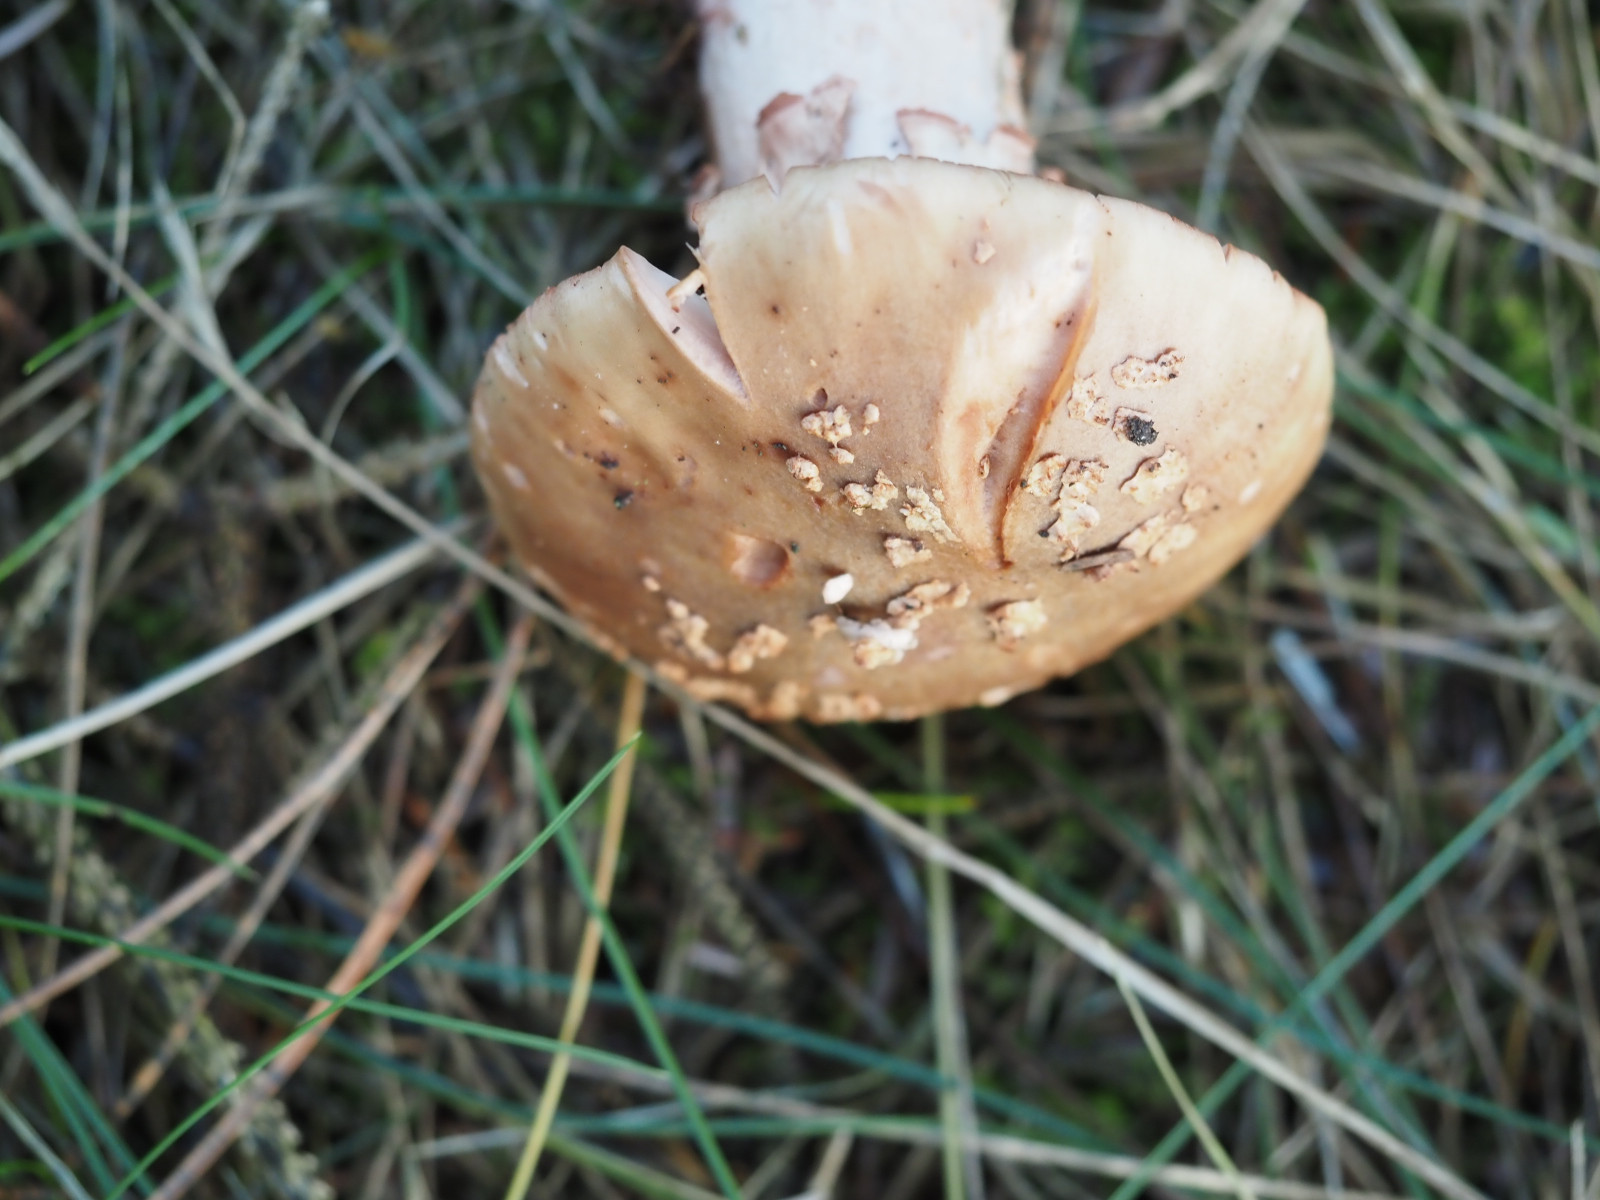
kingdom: Fungi
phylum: Basidiomycota
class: Agaricomycetes
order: Agaricales
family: Amanitaceae
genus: Amanita
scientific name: Amanita rubescens
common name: rødmende fluesvamp
